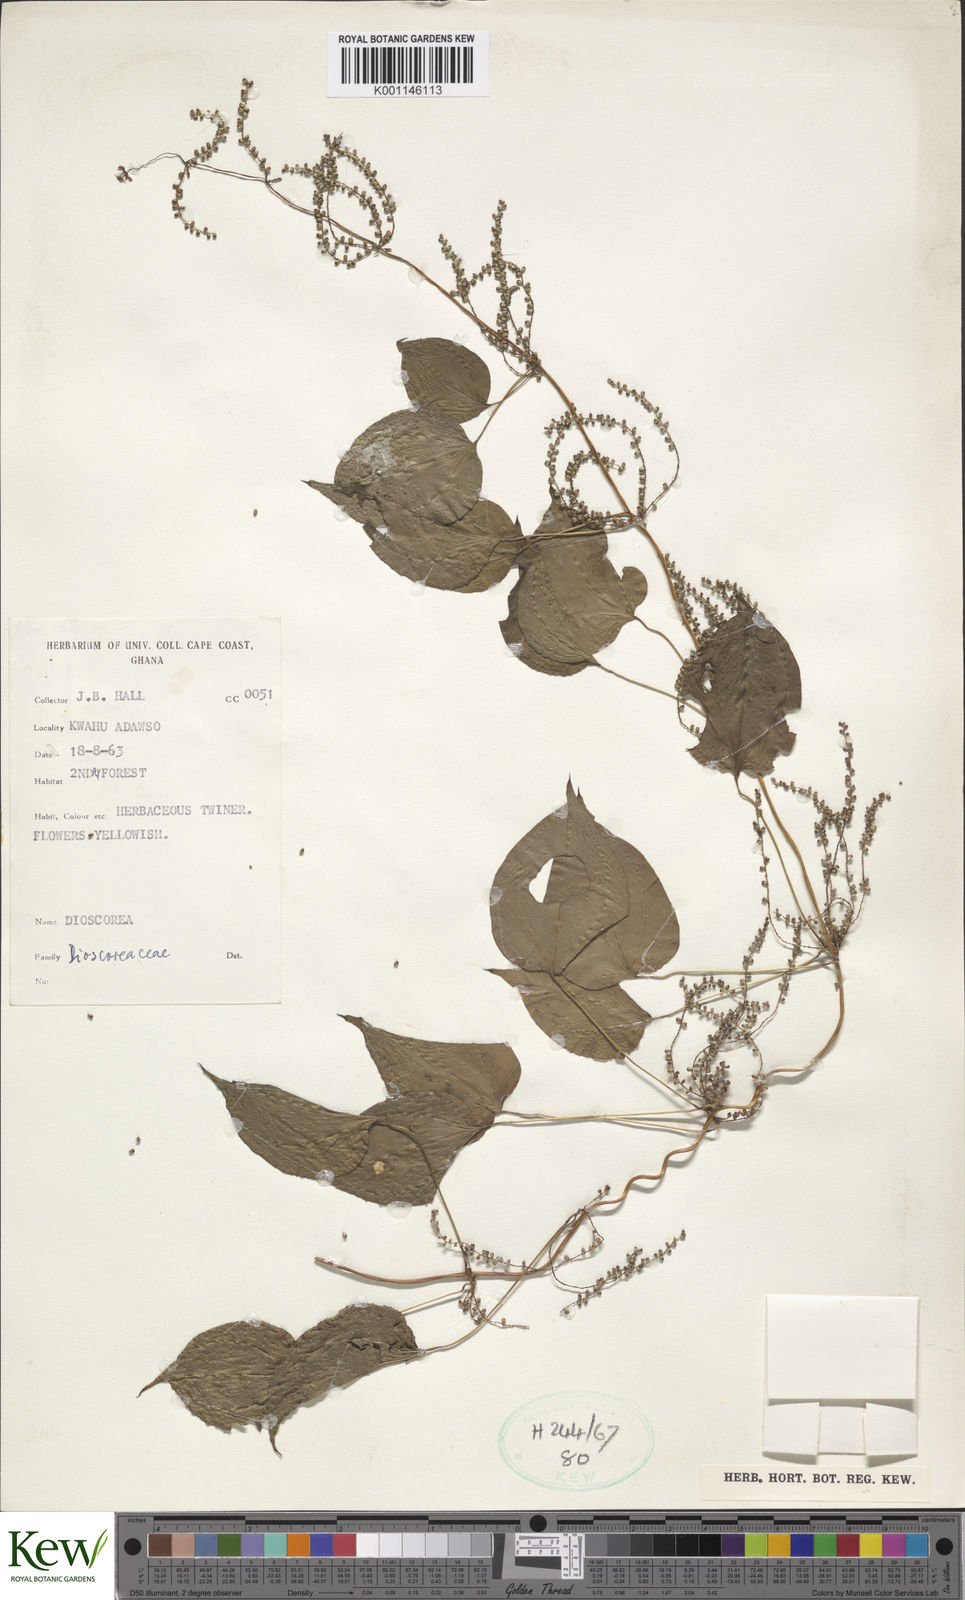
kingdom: Plantae
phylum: Tracheophyta
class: Liliopsida
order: Dioscoreales
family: Dioscoreaceae
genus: Dioscorea
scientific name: Dioscorea
